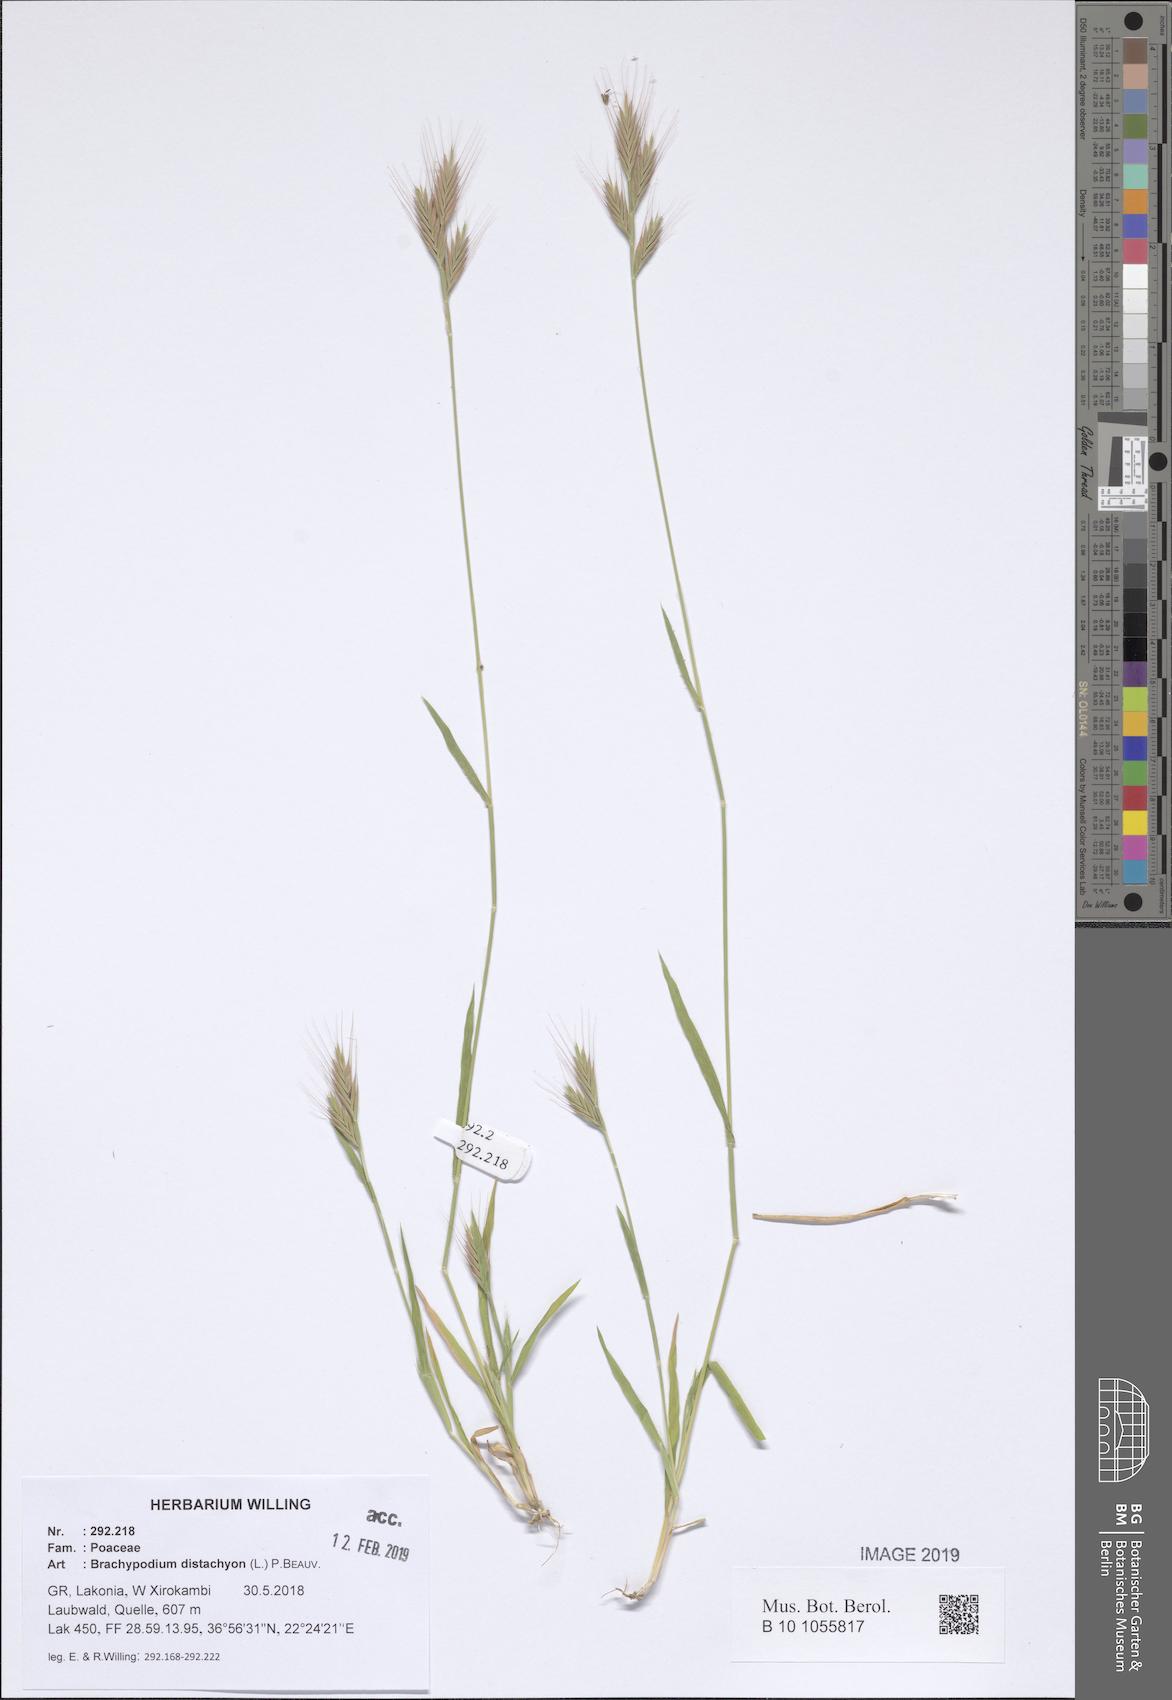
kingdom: Plantae
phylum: Tracheophyta
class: Liliopsida
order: Poales
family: Poaceae
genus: Brachypodium
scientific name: Brachypodium distachyon
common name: Stiff brome
